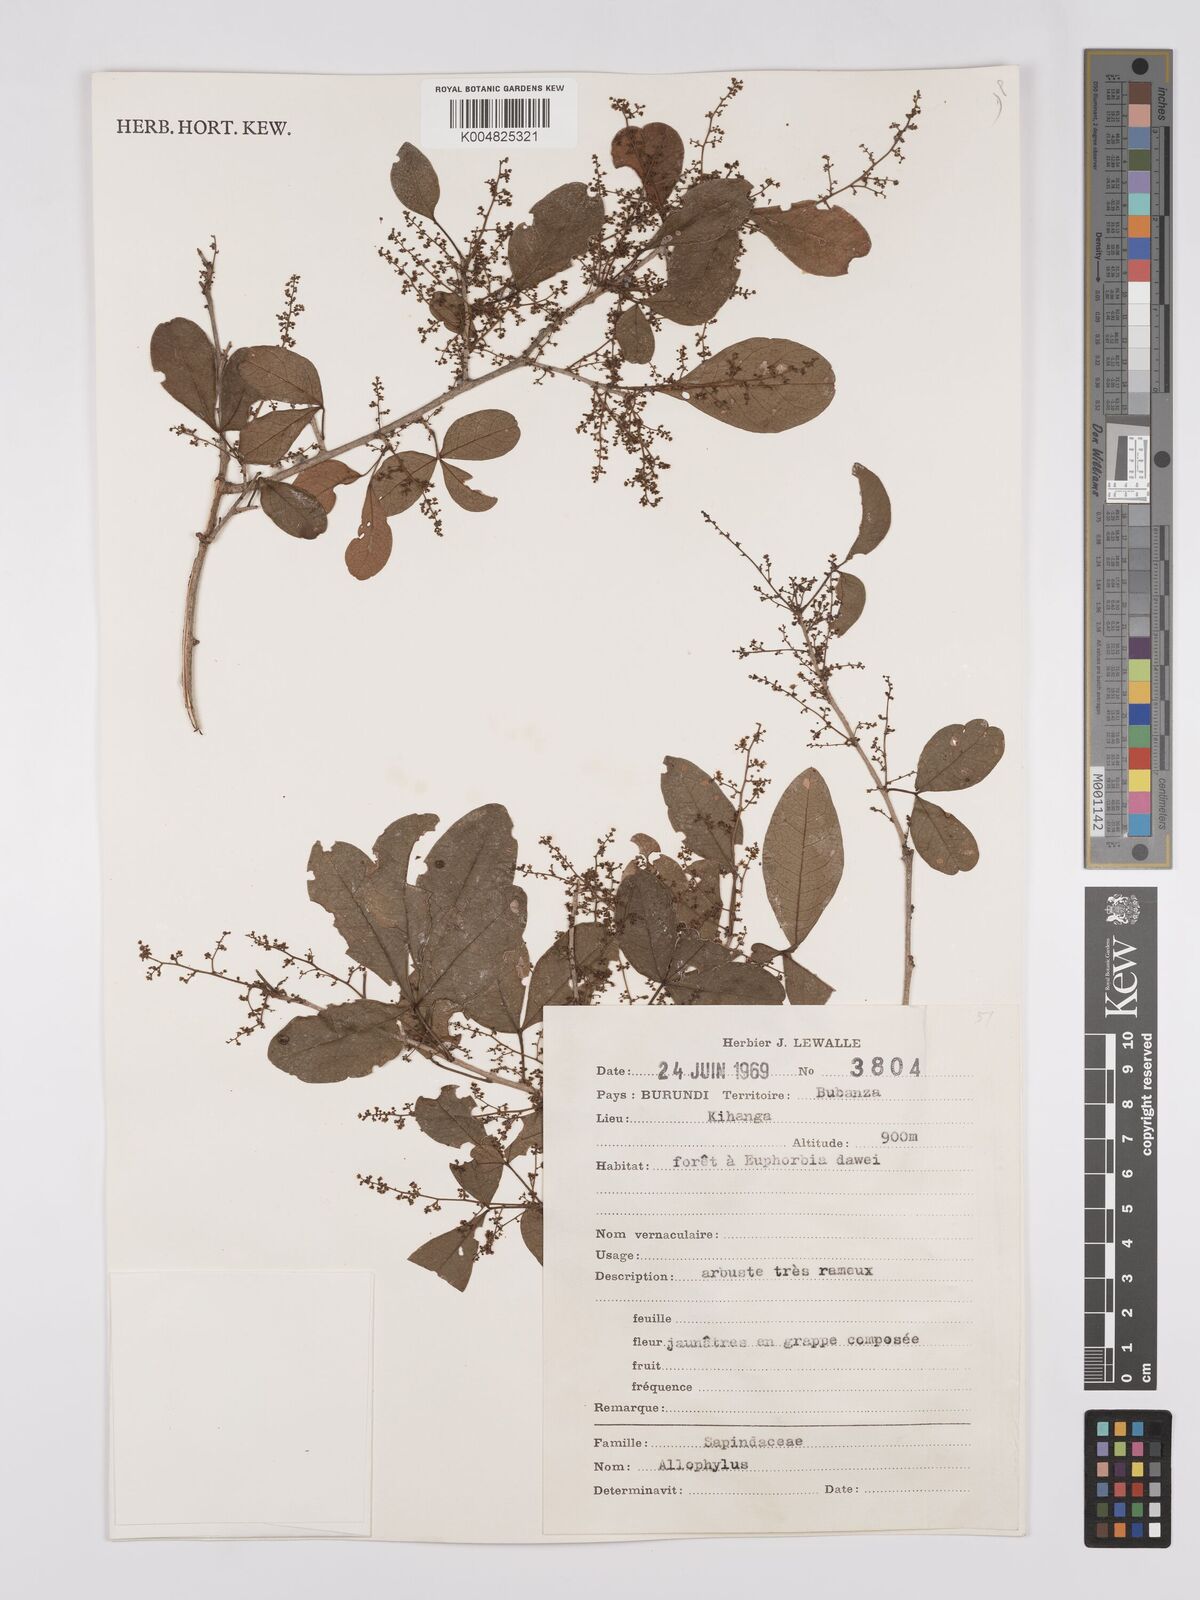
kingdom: Plantae
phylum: Tracheophyta
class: Magnoliopsida
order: Sapindales
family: Anacardiaceae
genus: Rhus
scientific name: Rhus
